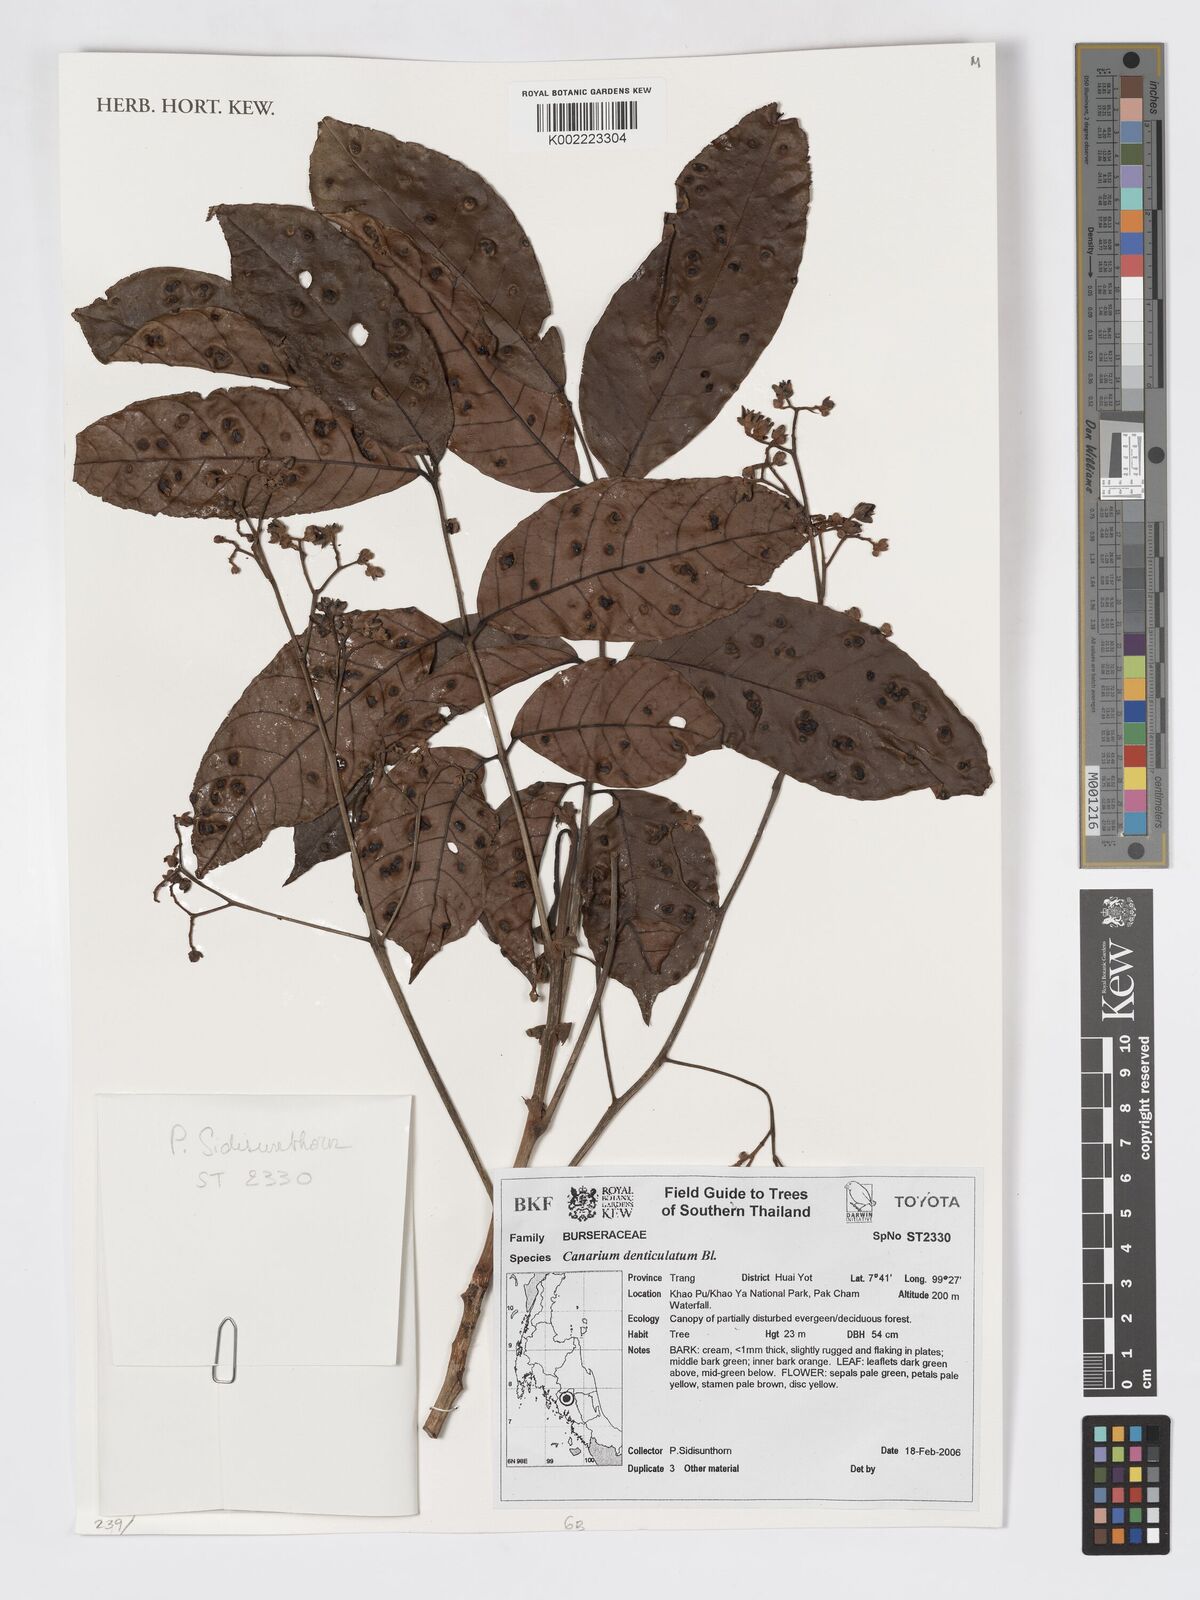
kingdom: Plantae
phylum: Tracheophyta
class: Magnoliopsida
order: Sapindales
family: Burseraceae
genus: Canarium
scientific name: Canarium denticulatum
